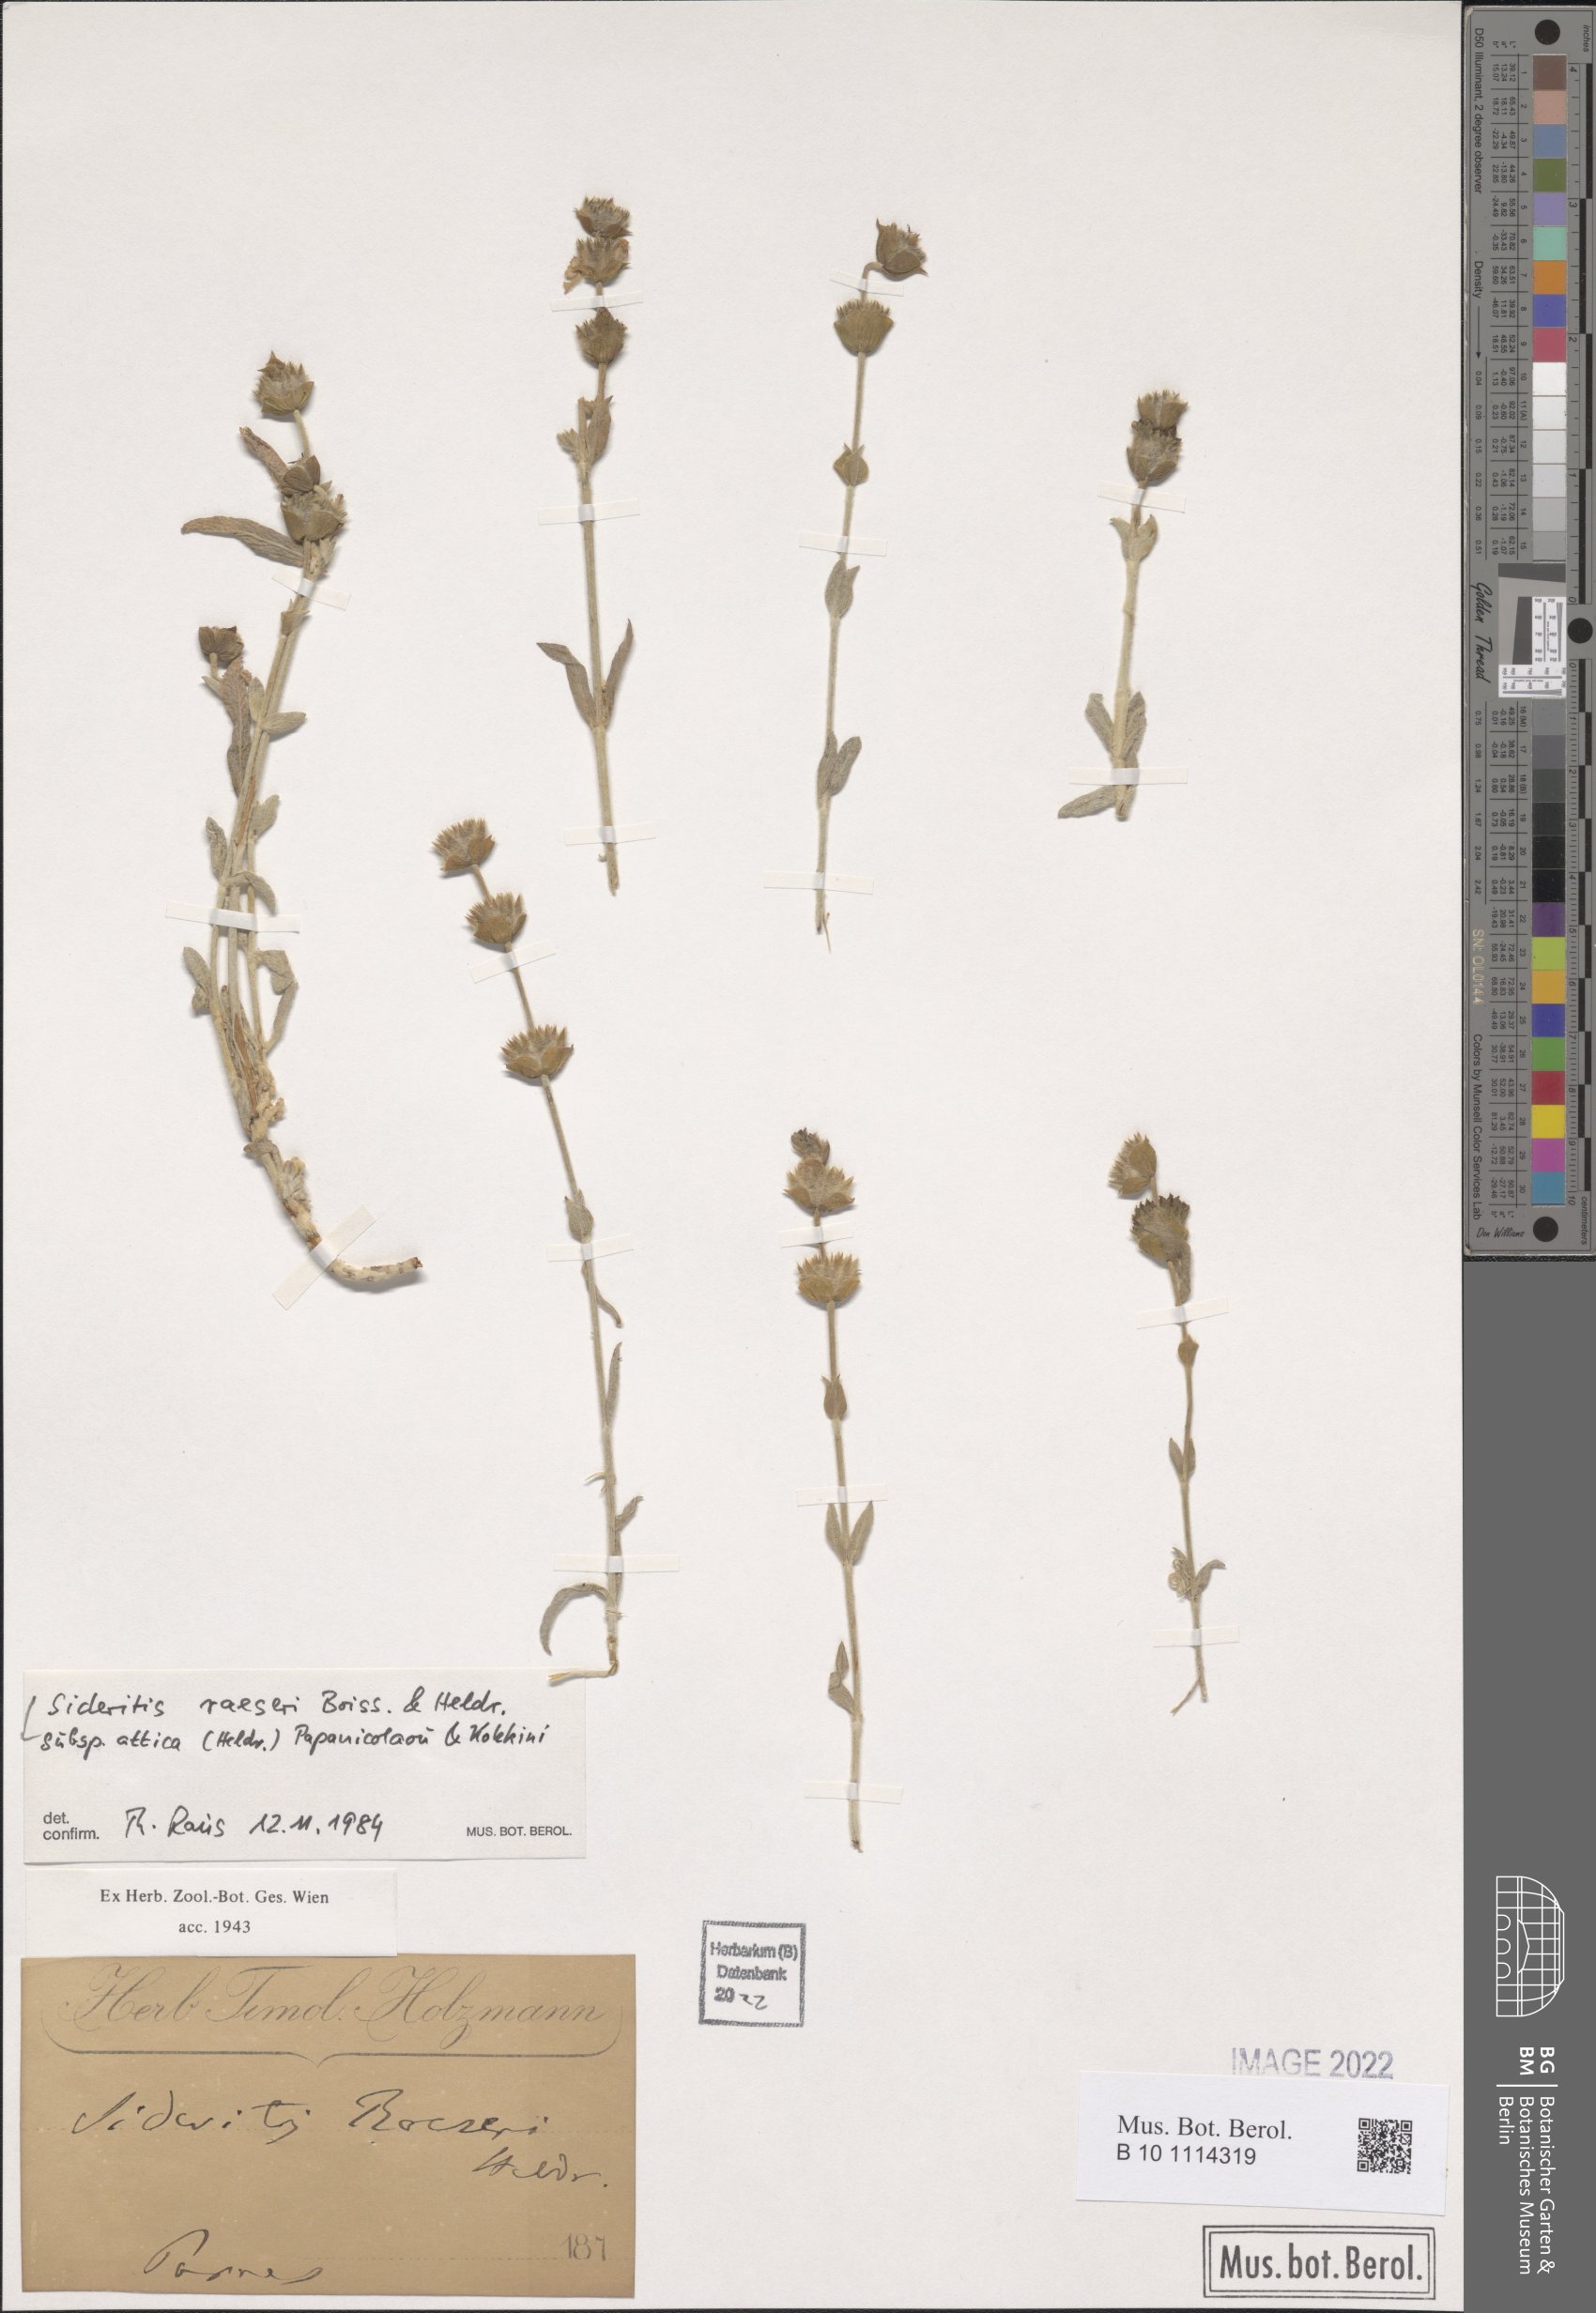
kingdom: Plantae
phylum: Tracheophyta
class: Magnoliopsida
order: Lamiales
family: Lamiaceae
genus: Sideritis
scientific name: Sideritis raeseri
